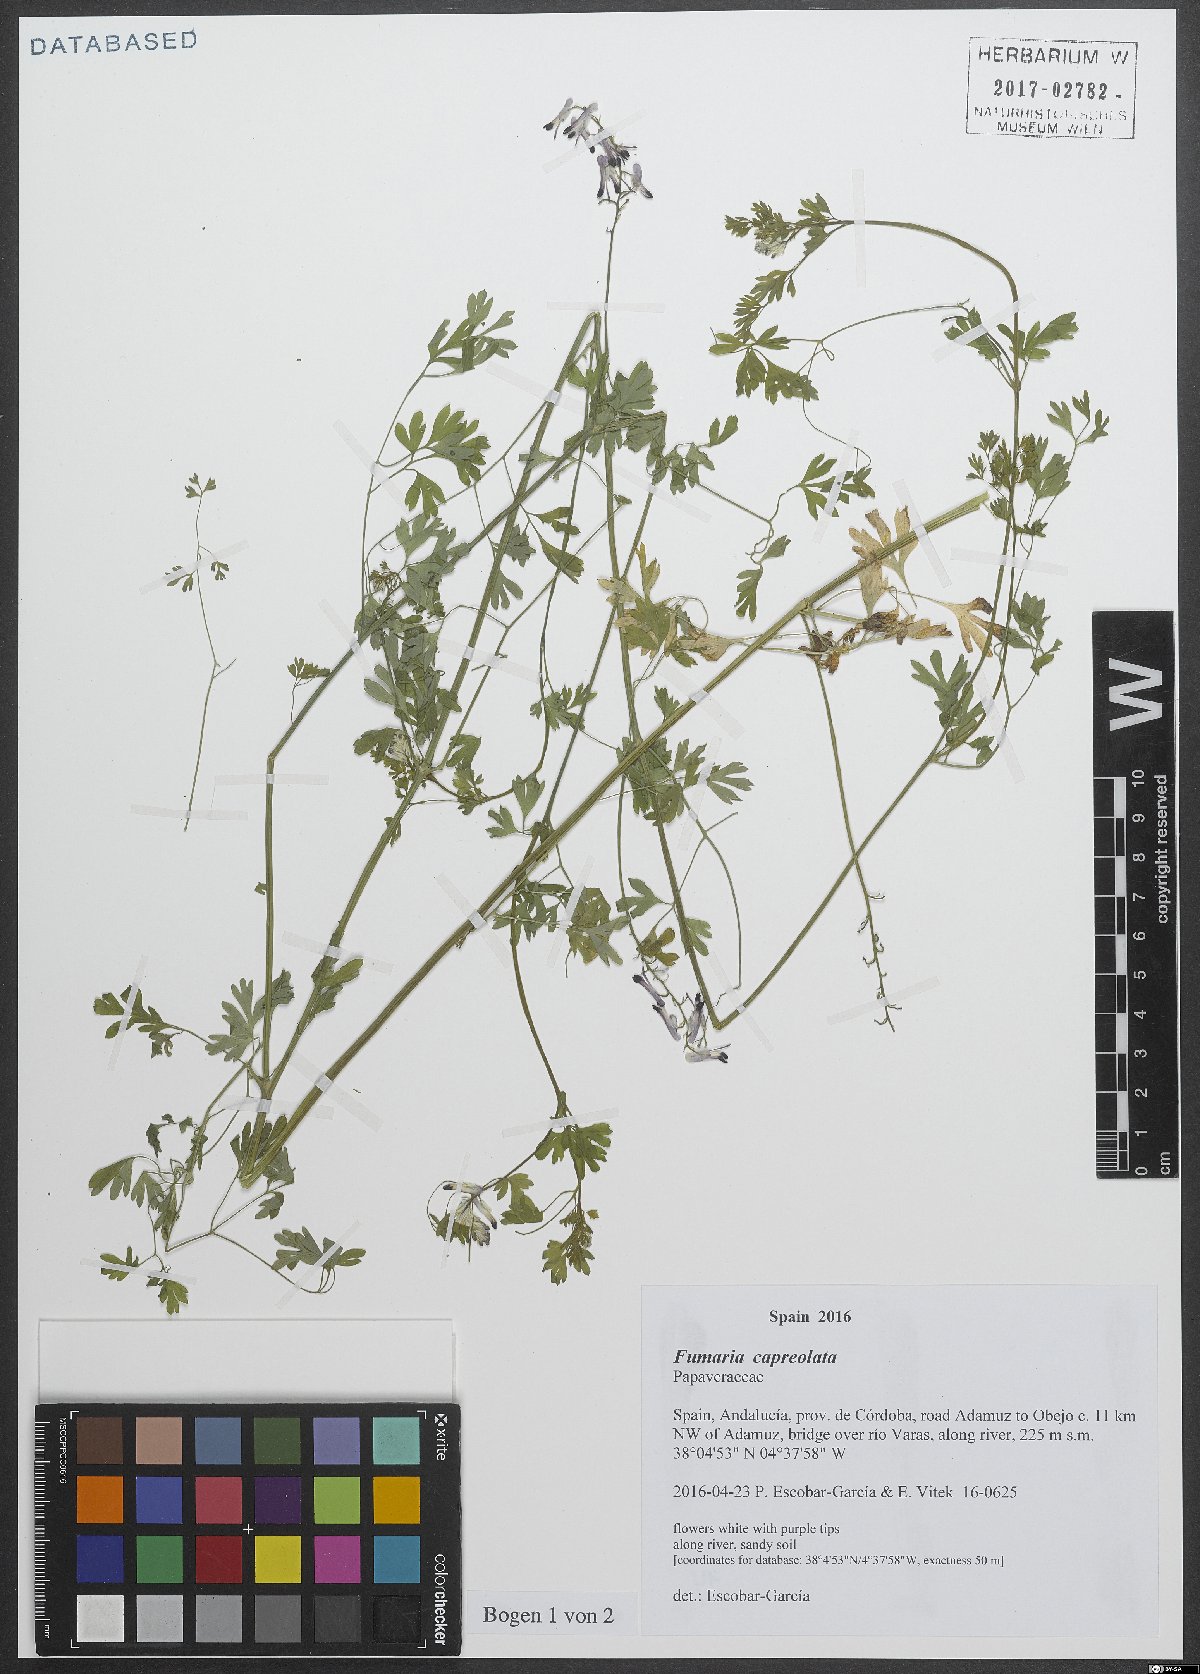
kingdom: Plantae
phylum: Tracheophyta
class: Magnoliopsida
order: Ranunculales
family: Papaveraceae
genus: Fumaria
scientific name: Fumaria capreolata
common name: White ramping-fumitory
